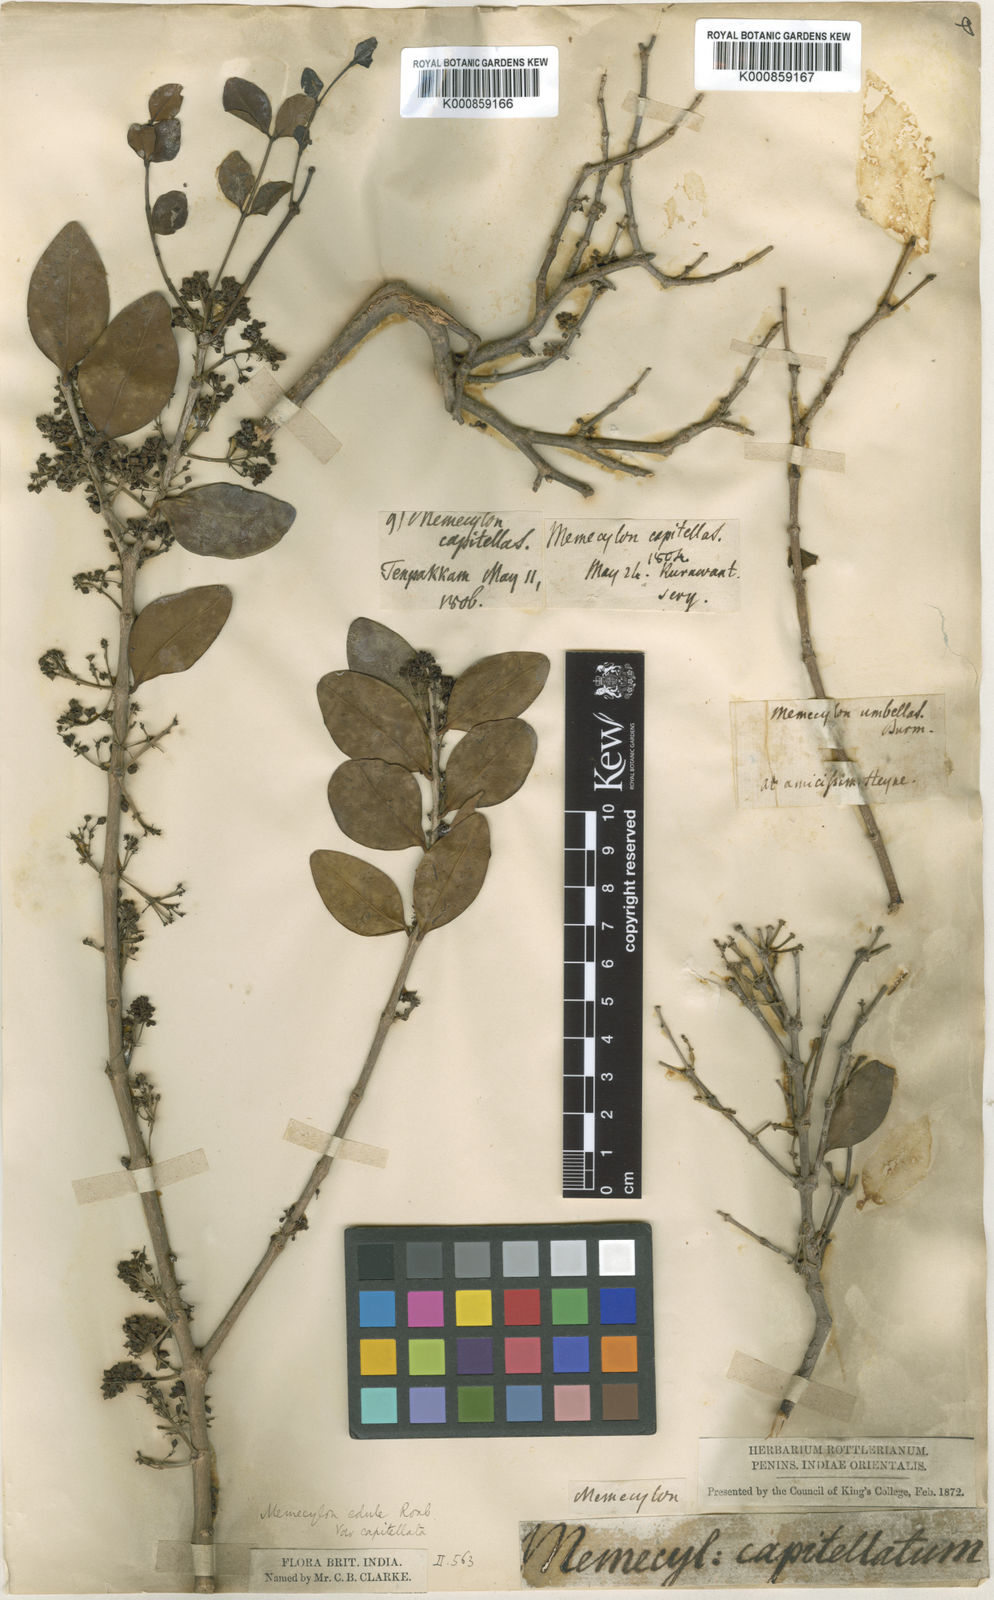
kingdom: Plantae
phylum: Tracheophyta
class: Magnoliopsida
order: Myrtales
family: Melastomataceae
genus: Memecylon
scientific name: Memecylon edule
